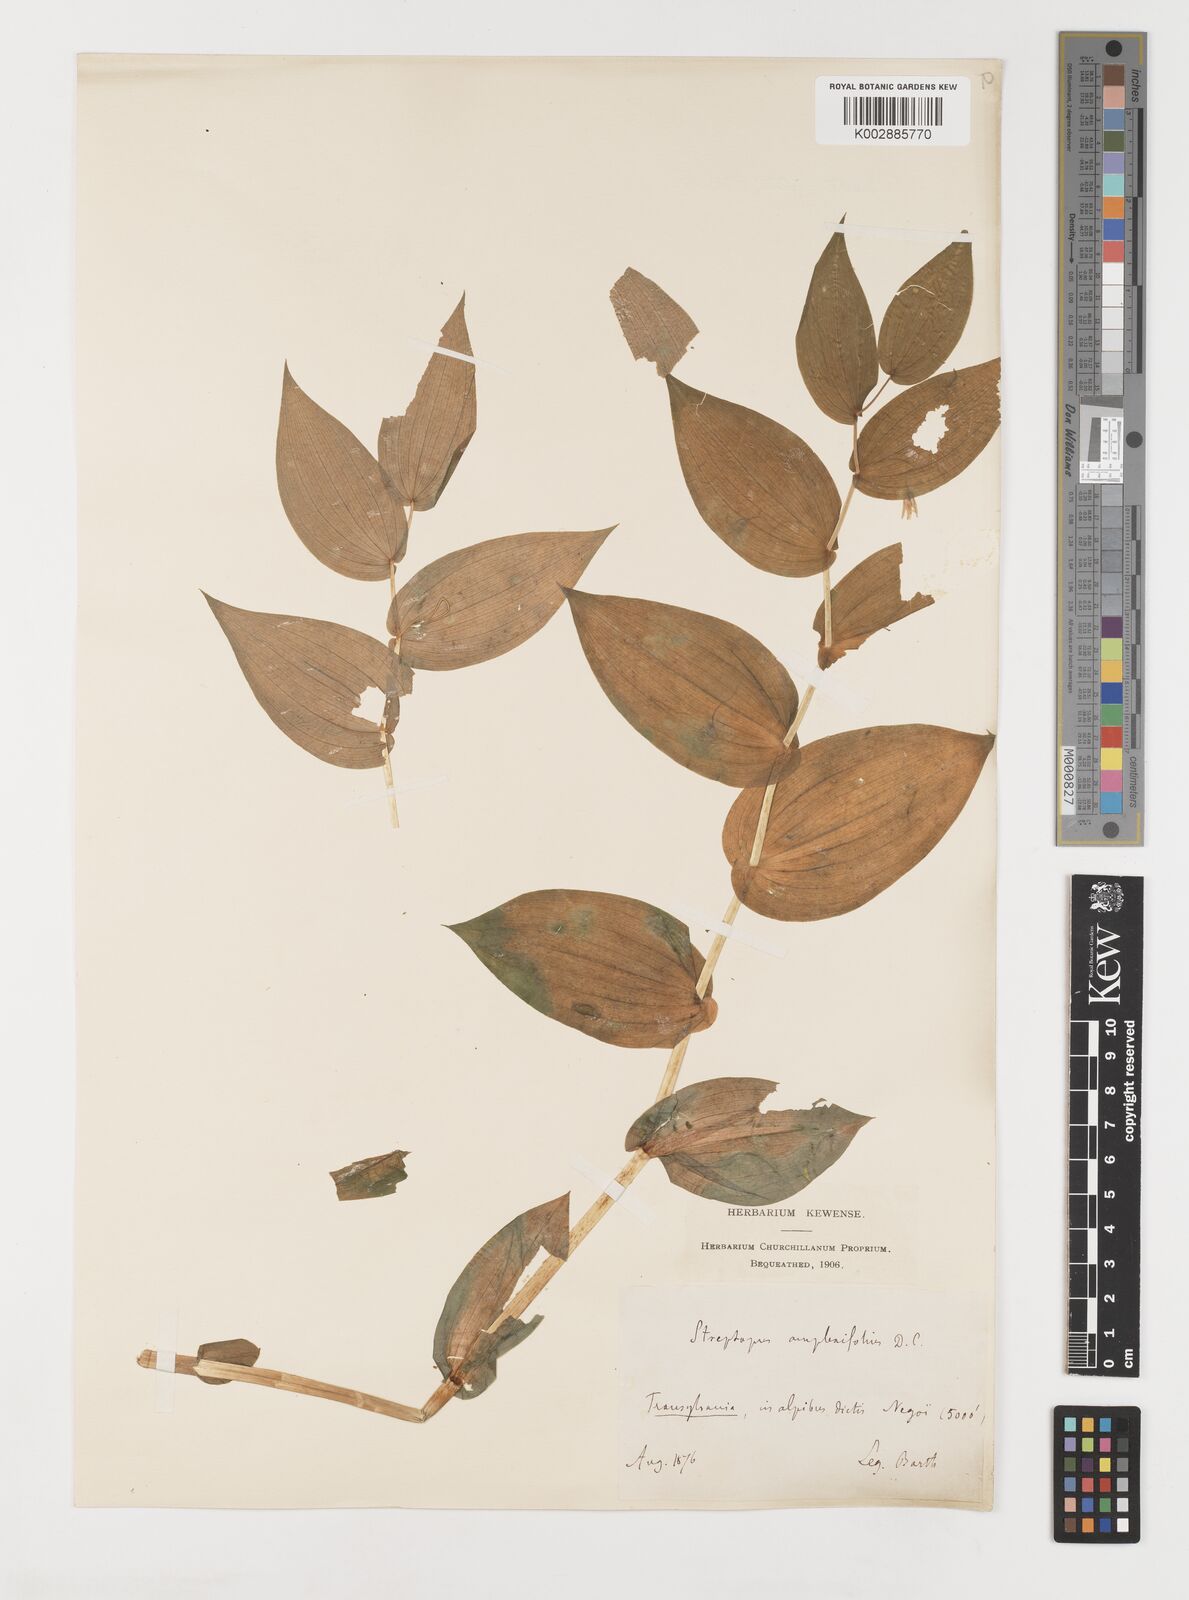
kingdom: Plantae
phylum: Tracheophyta
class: Liliopsida
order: Liliales
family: Liliaceae
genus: Streptopus
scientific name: Streptopus amplexifolius
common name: Clasp twisted stalk
